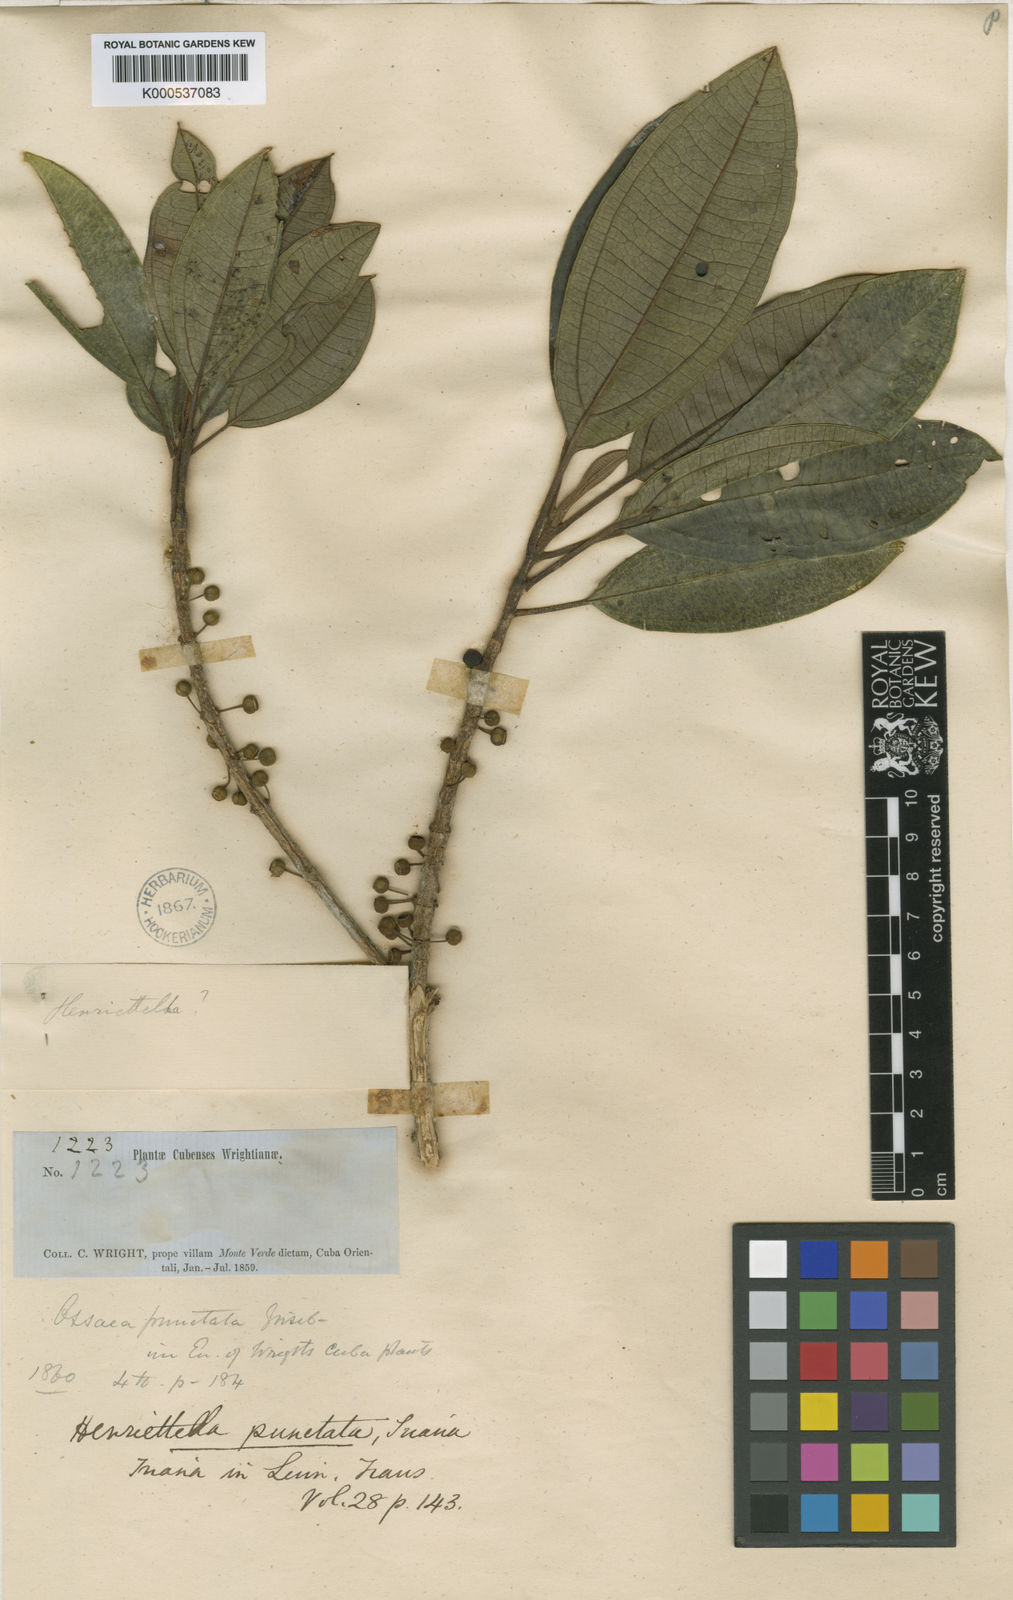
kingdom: Plantae
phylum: Tracheophyta
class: Magnoliopsida
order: Myrtales
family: Melastomataceae
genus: Henriettea
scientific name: Henriettea
